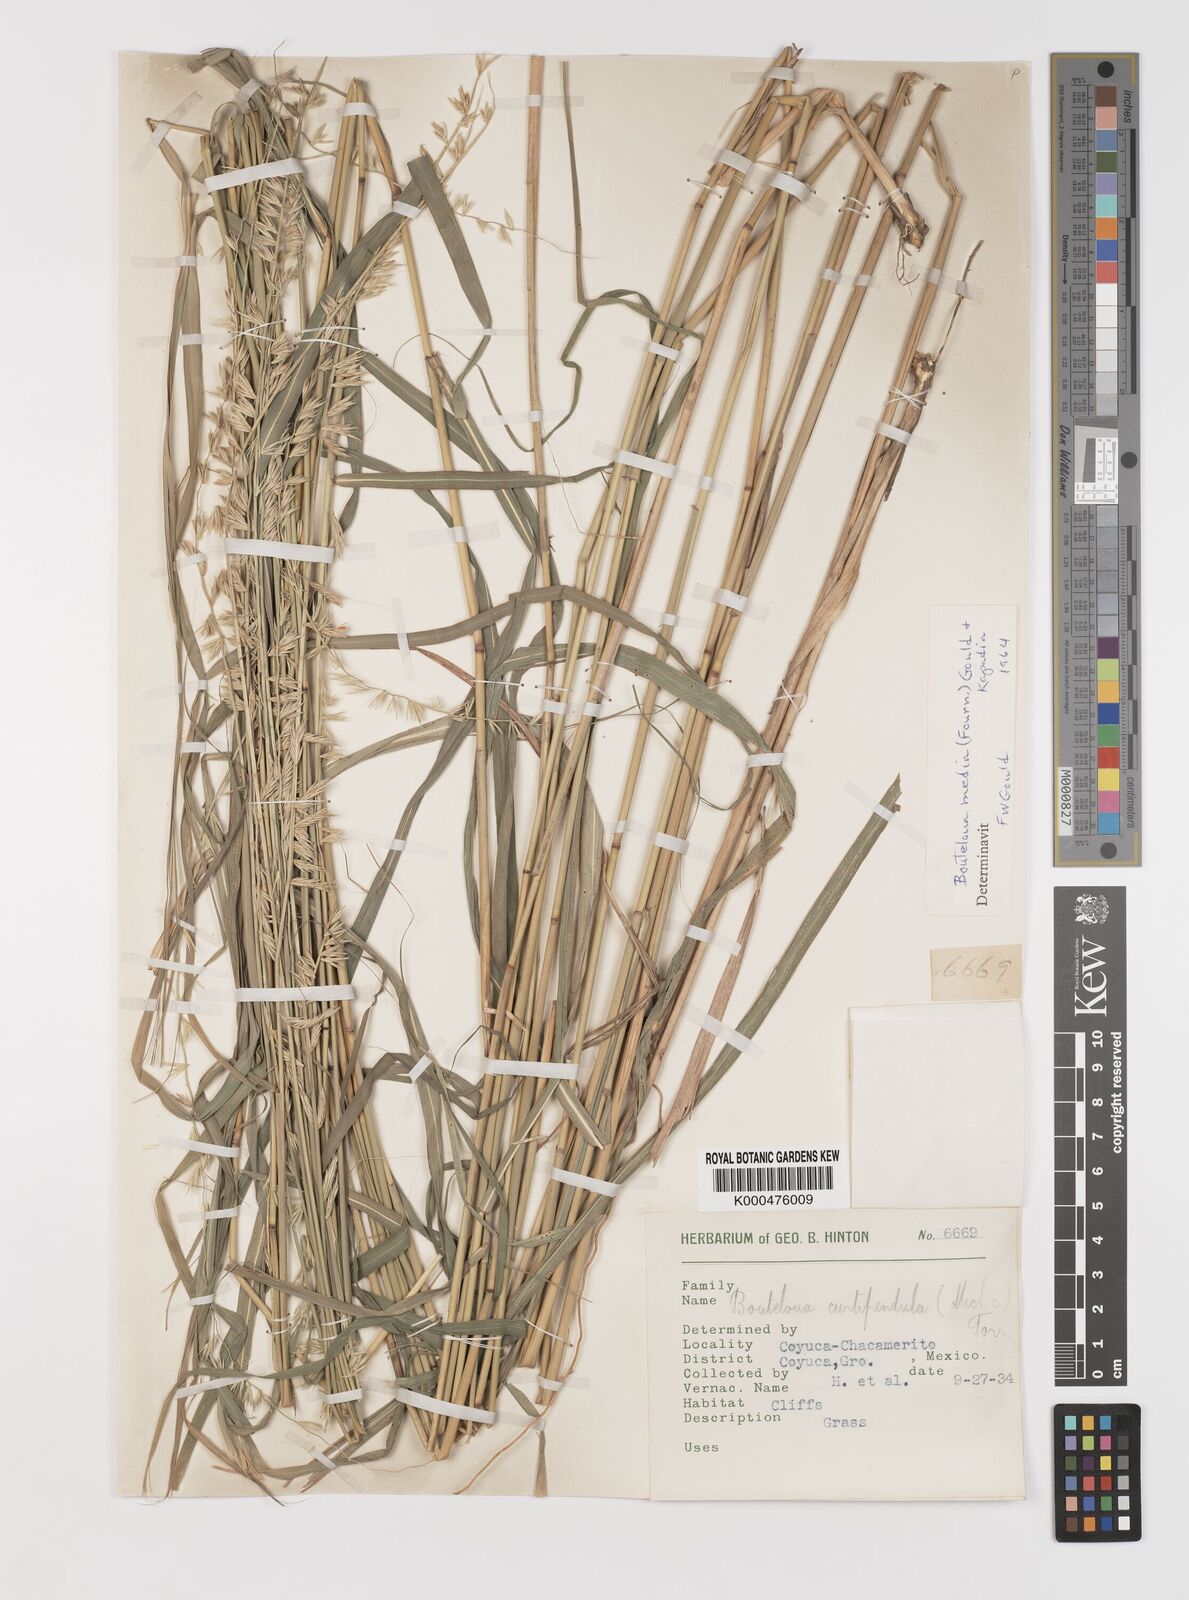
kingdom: Plantae
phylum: Tracheophyta
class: Liliopsida
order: Poales
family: Poaceae
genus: Bouteloua
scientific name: Bouteloua media
